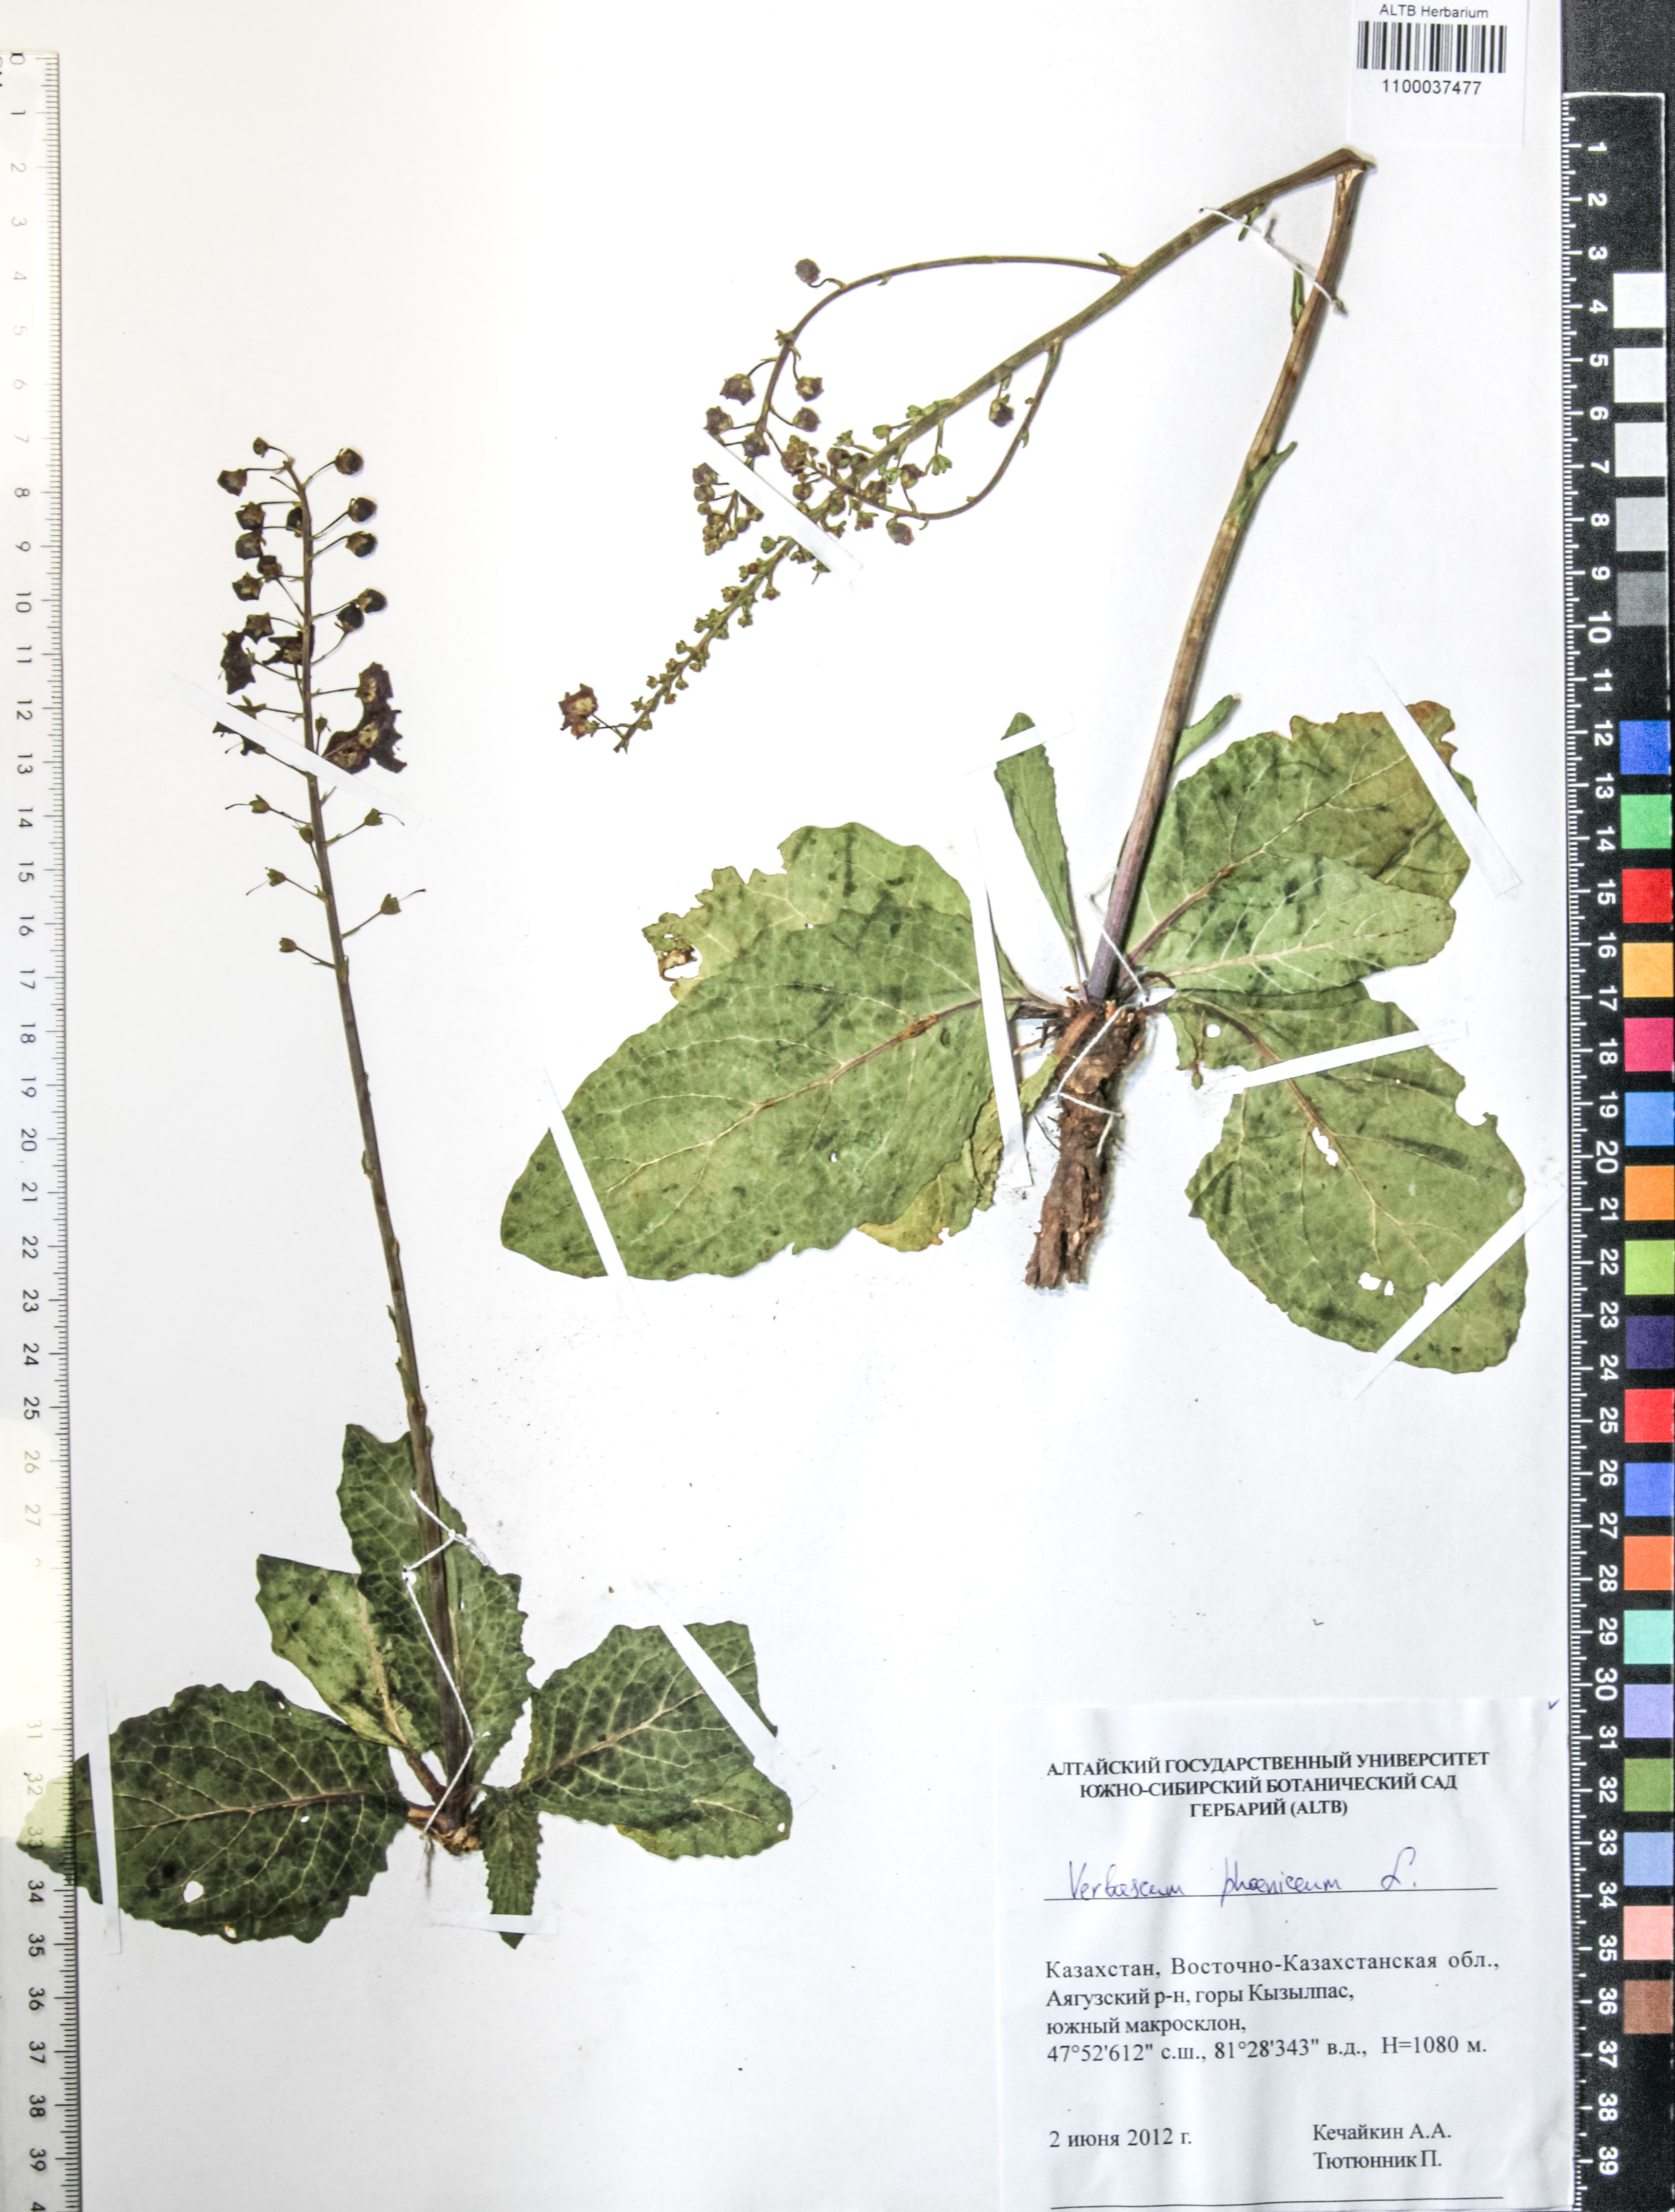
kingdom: Plantae
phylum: Tracheophyta
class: Magnoliopsida
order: Lamiales
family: Scrophulariaceae
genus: Verbascum
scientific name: Verbascum phoeniceum
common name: Purple mullein
